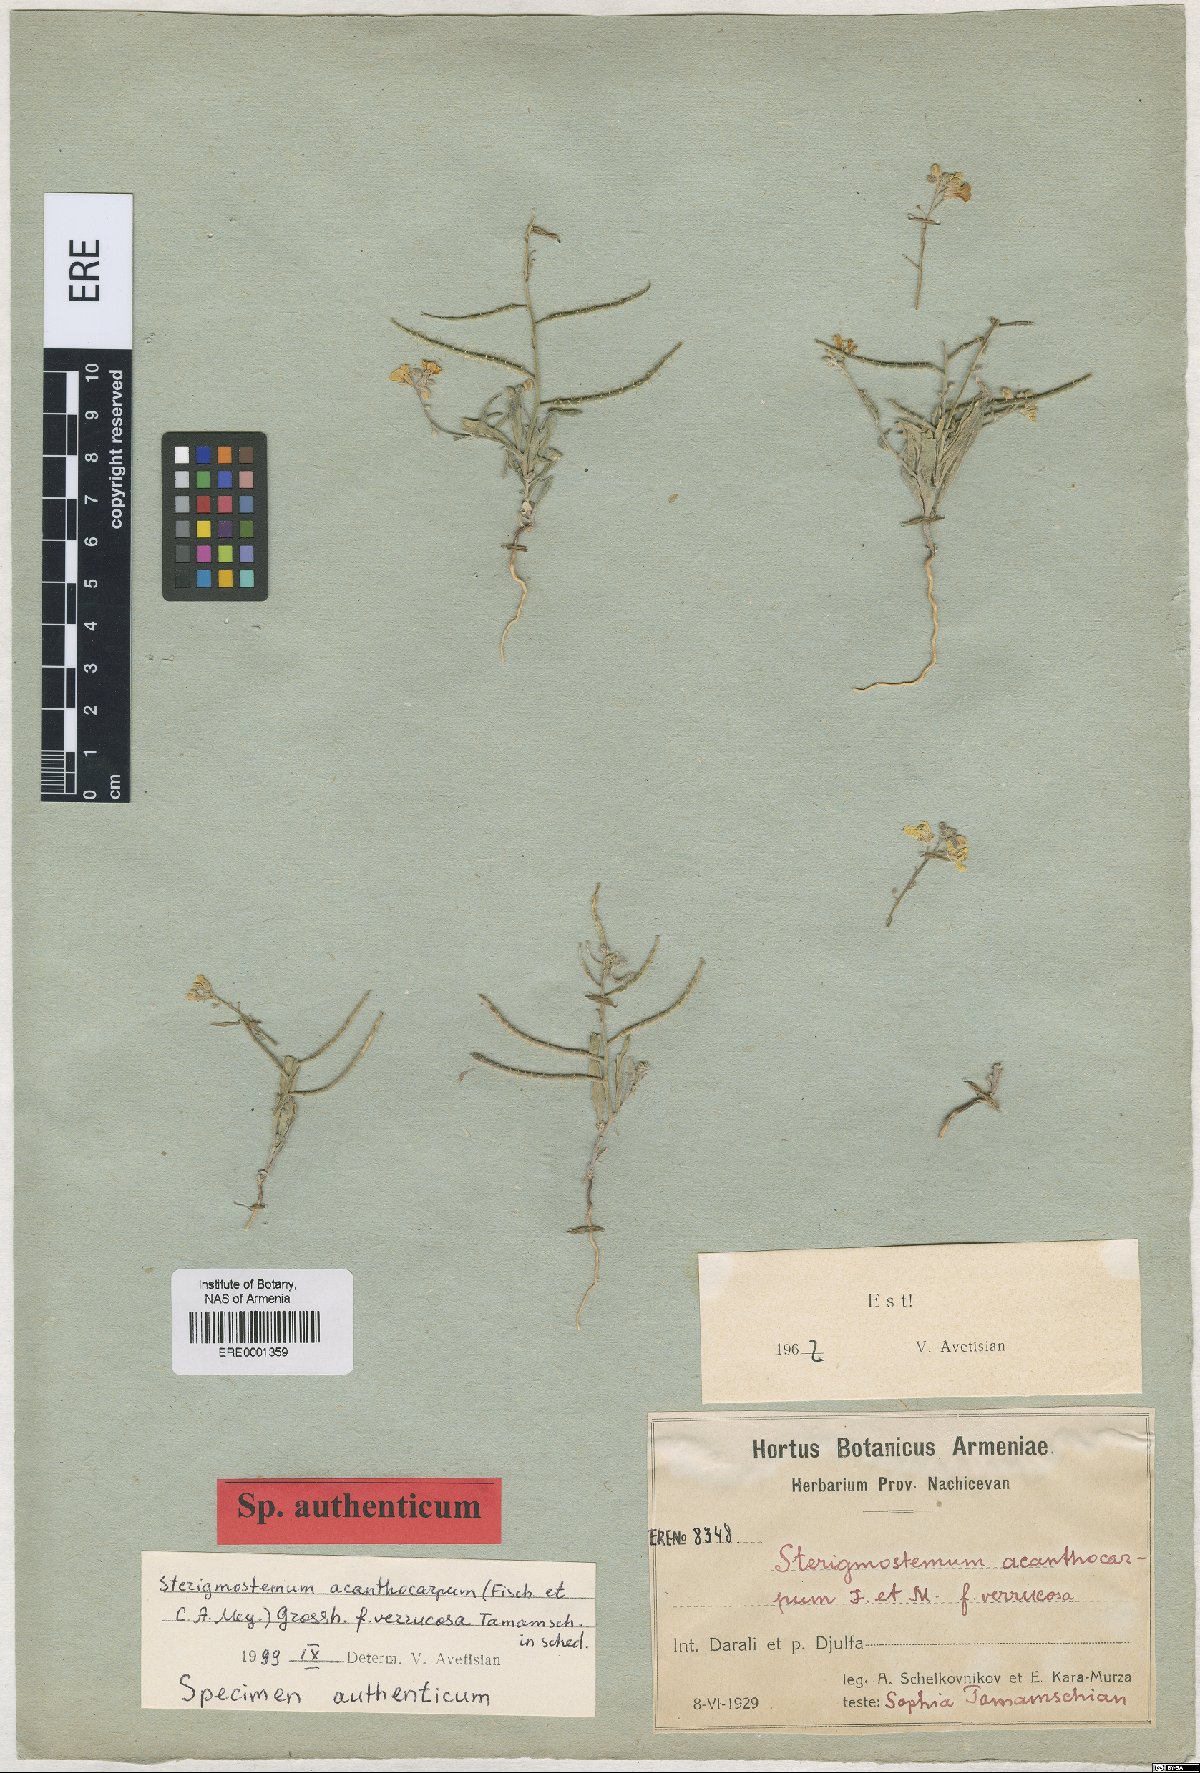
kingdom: Plantae
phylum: Tracheophyta
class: Magnoliopsida
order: Brassicales
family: Brassicaceae
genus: Sterigmostemum
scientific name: Sterigmostemum acanthocarpum
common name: Prickly-fruited sterigmostemum
